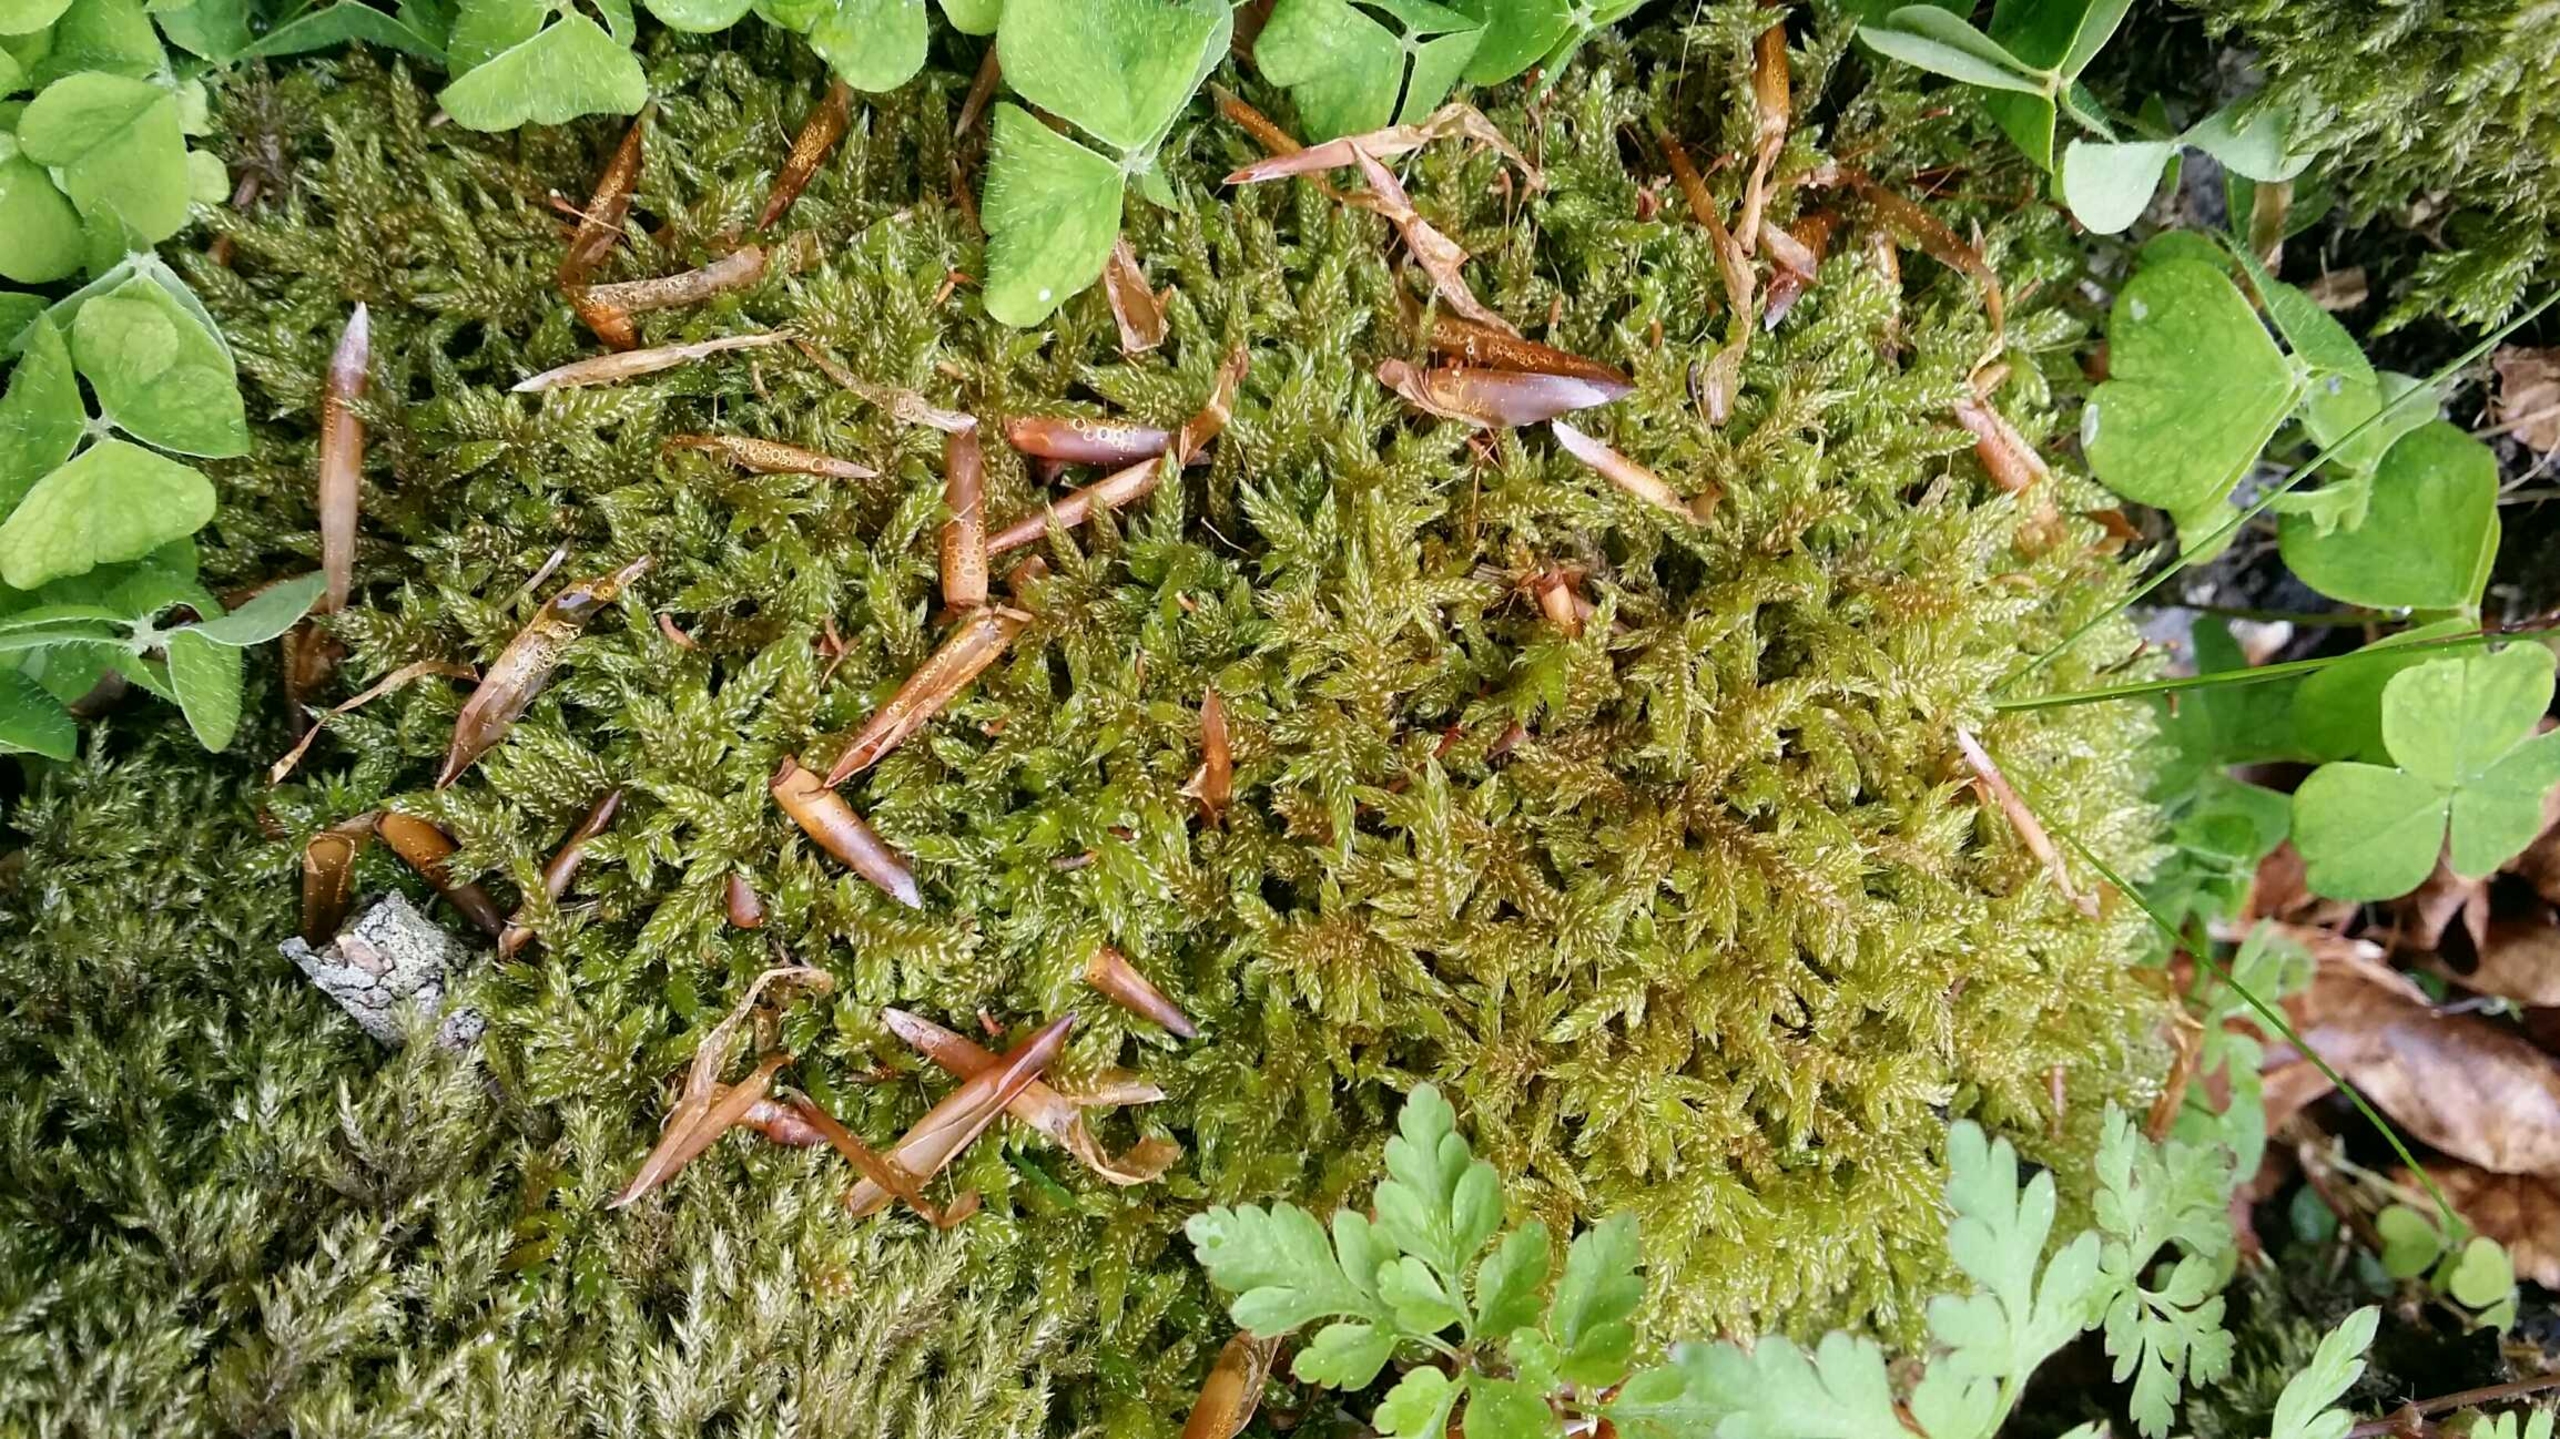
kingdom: Plantae
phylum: Bryophyta
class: Bryopsida
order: Hypnales
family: Hypnaceae
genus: Hypnum
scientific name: Hypnum cupressiforme
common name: Almindelig cypresmos
